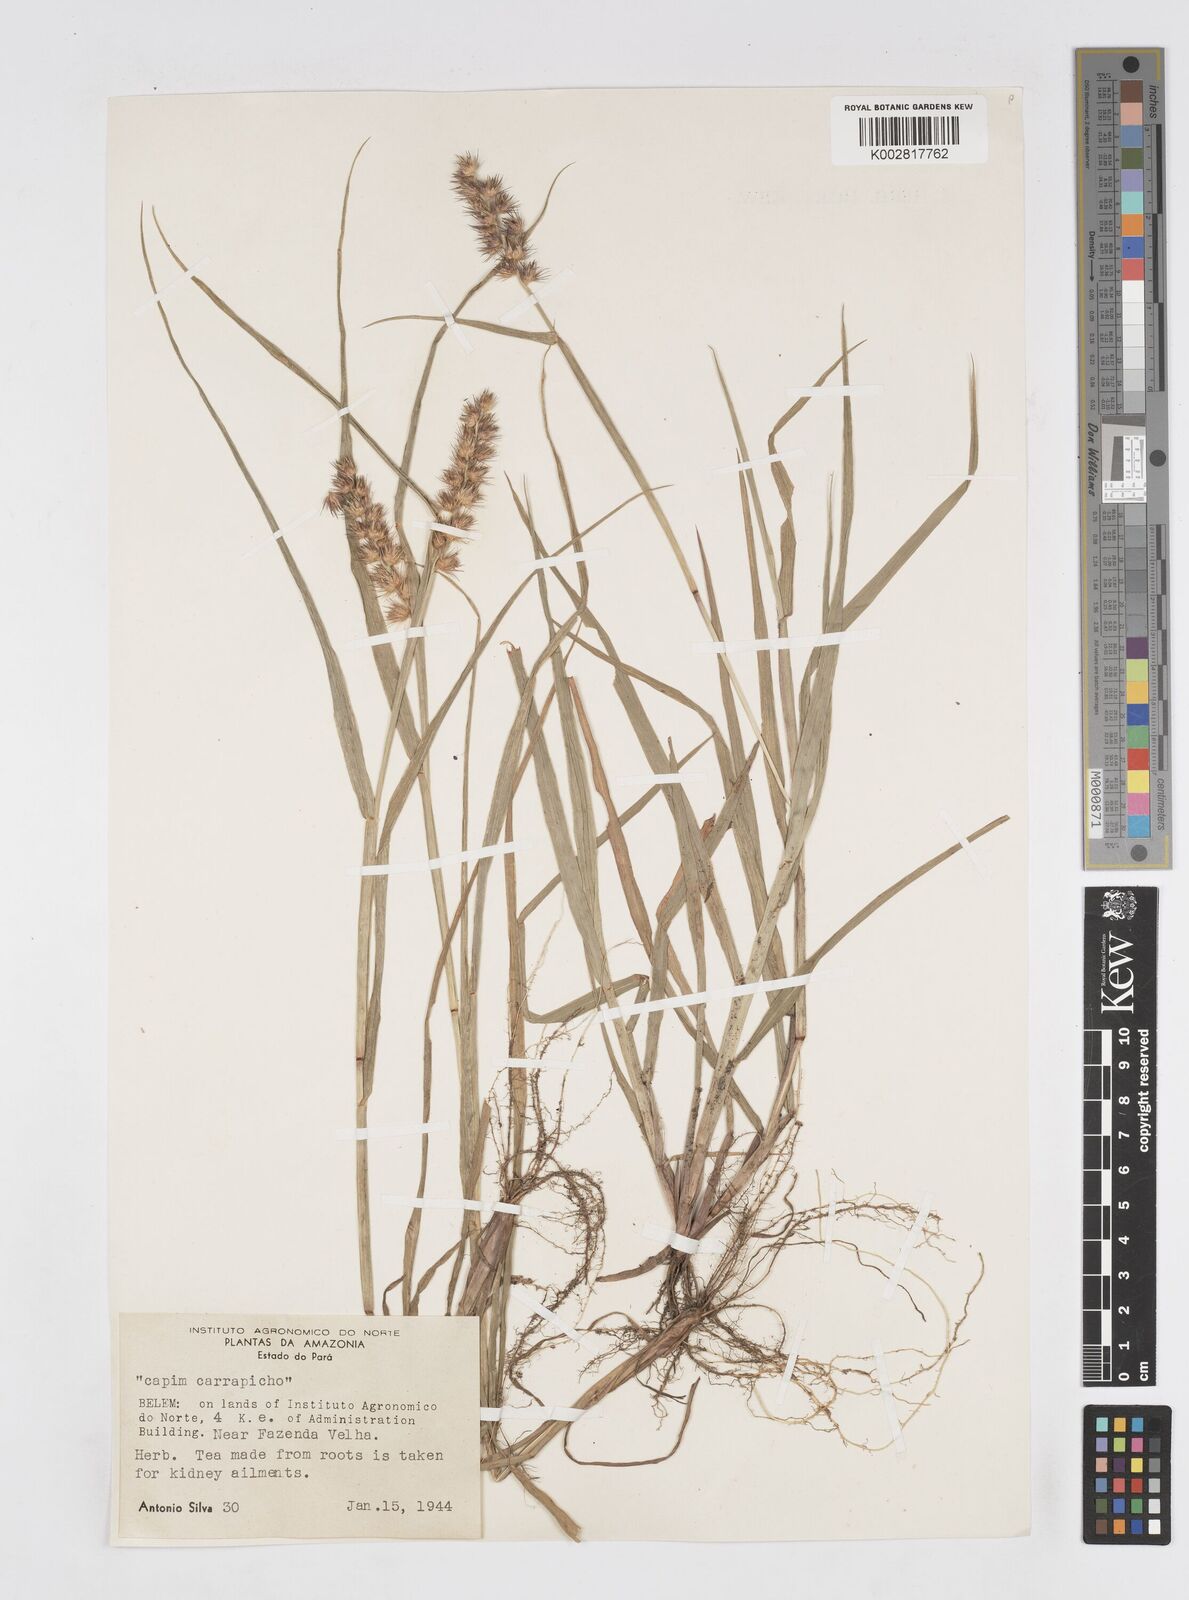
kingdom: Plantae
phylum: Tracheophyta
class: Liliopsida
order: Poales
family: Poaceae
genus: Cenchrus
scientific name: Cenchrus
